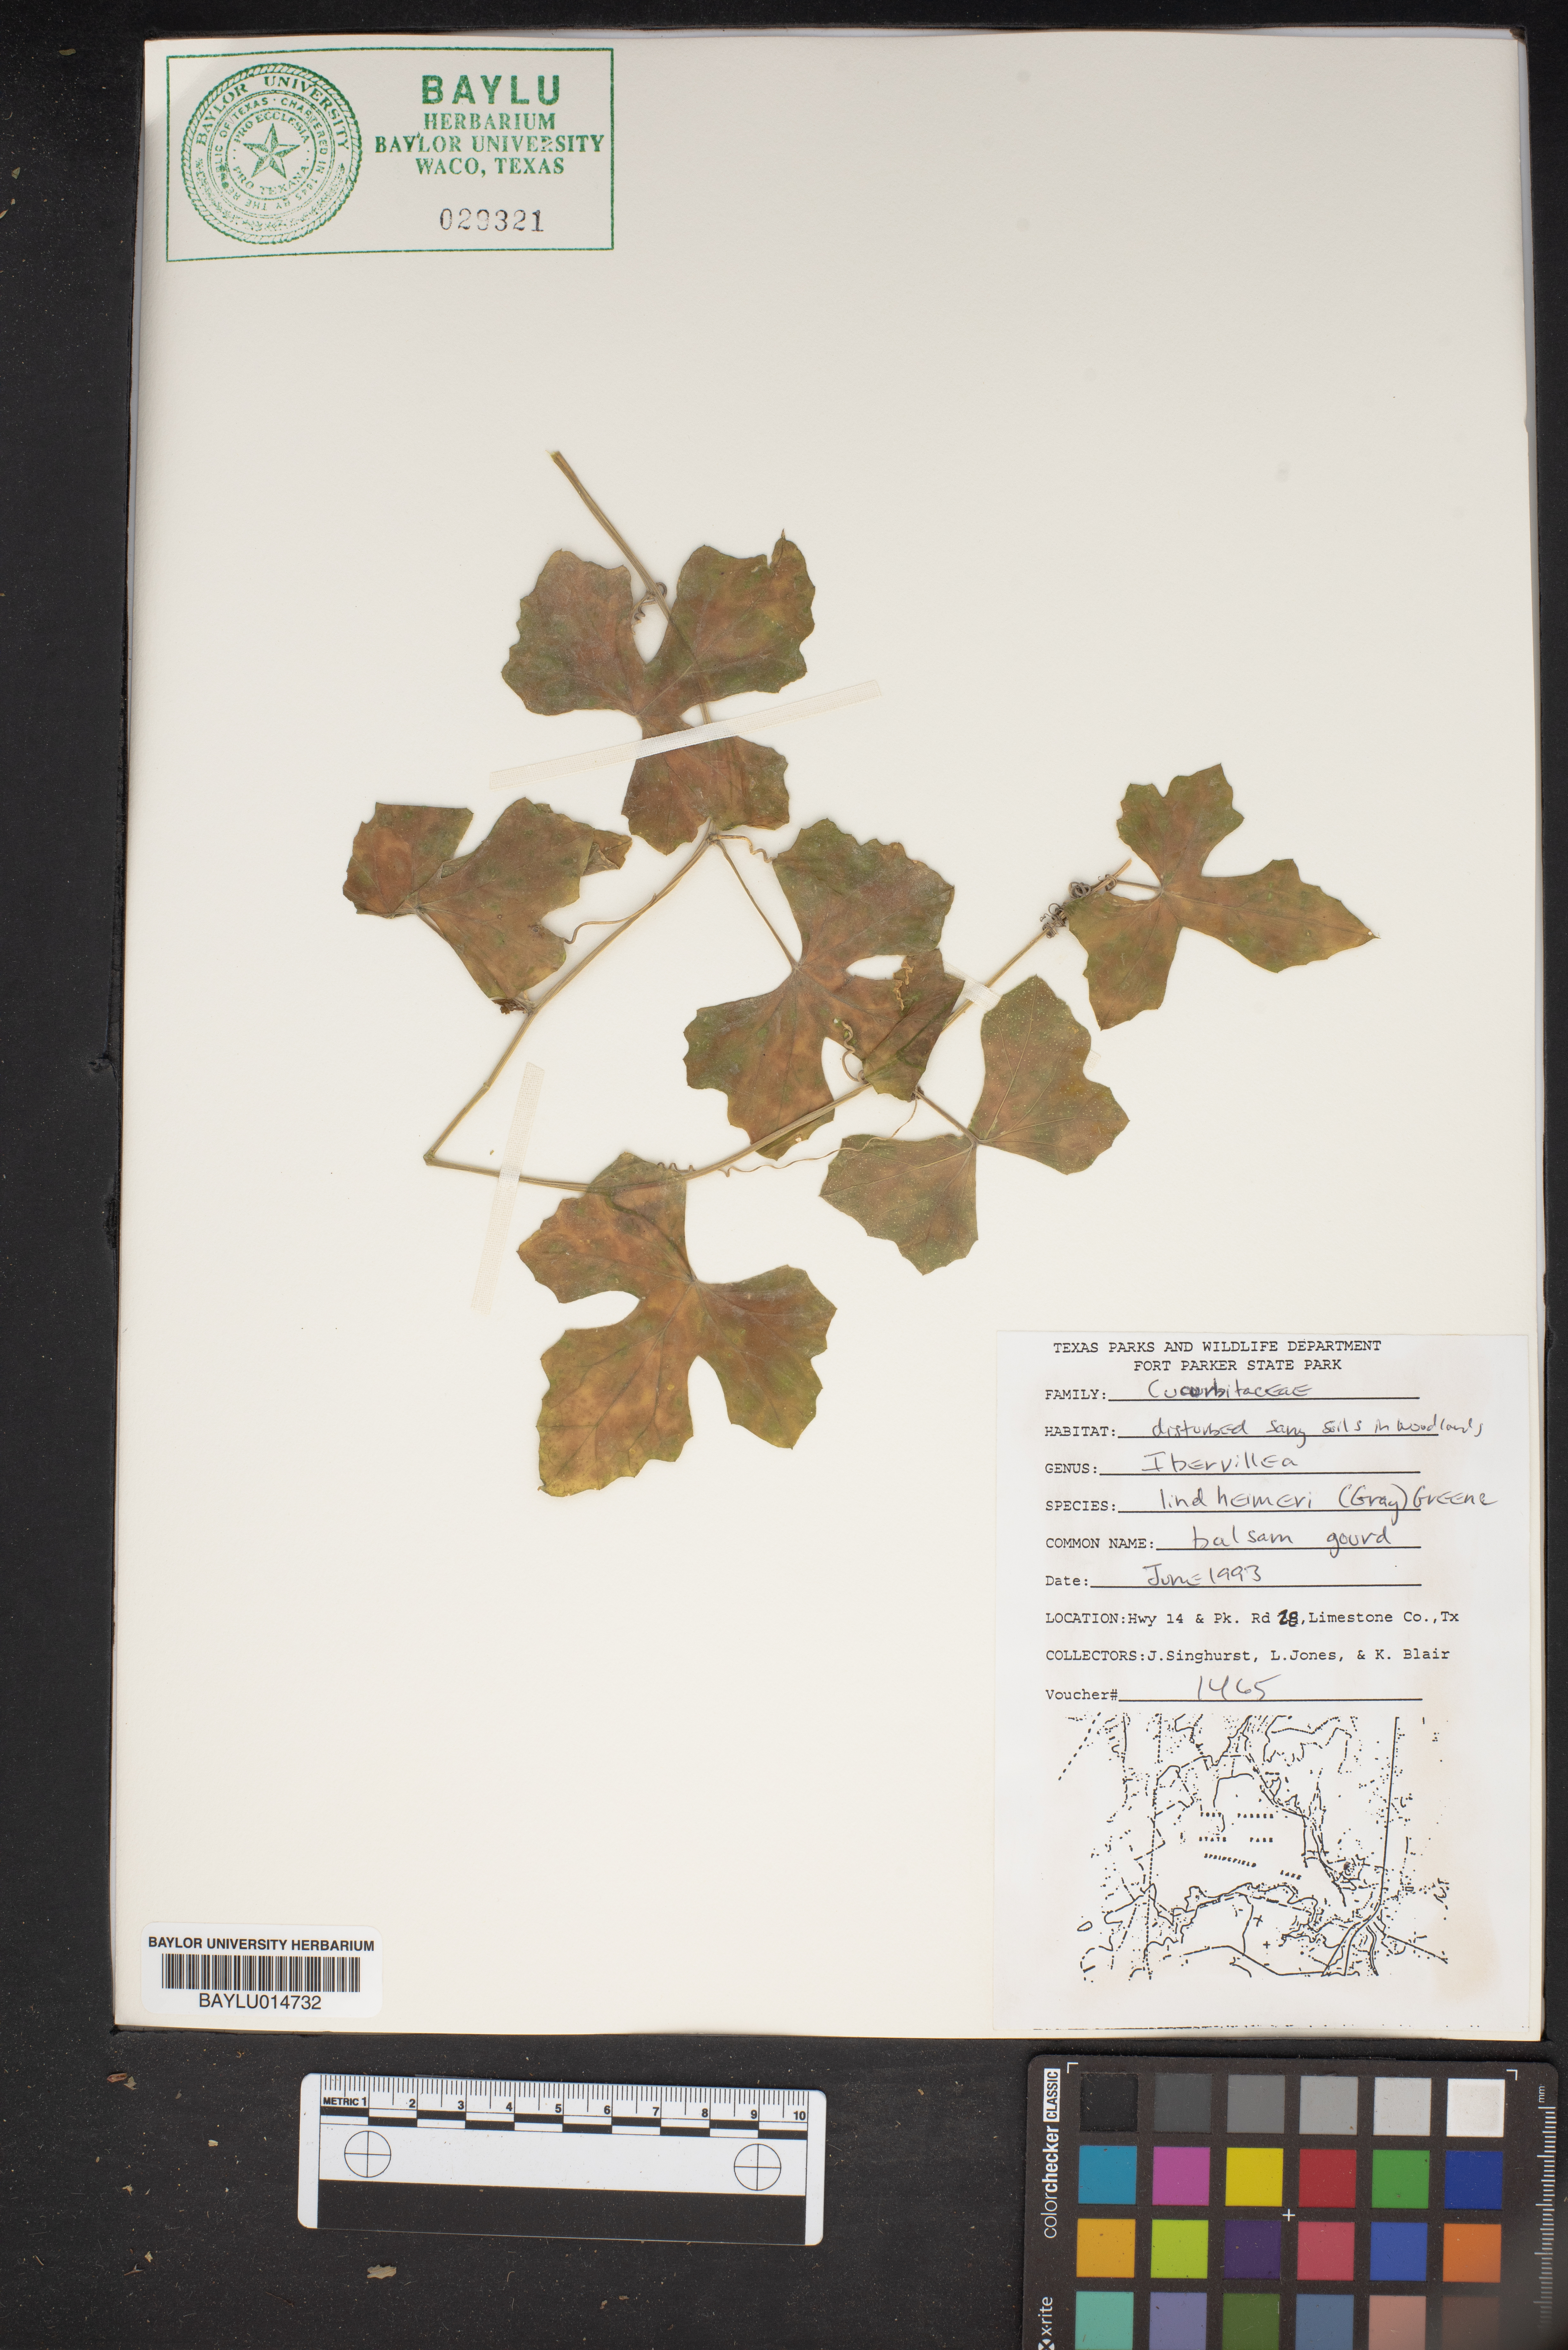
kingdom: Plantae
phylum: Tracheophyta
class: Magnoliopsida
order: Cucurbitales
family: Cucurbitaceae
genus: Ibervillea
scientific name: Ibervillea lindheimeri
